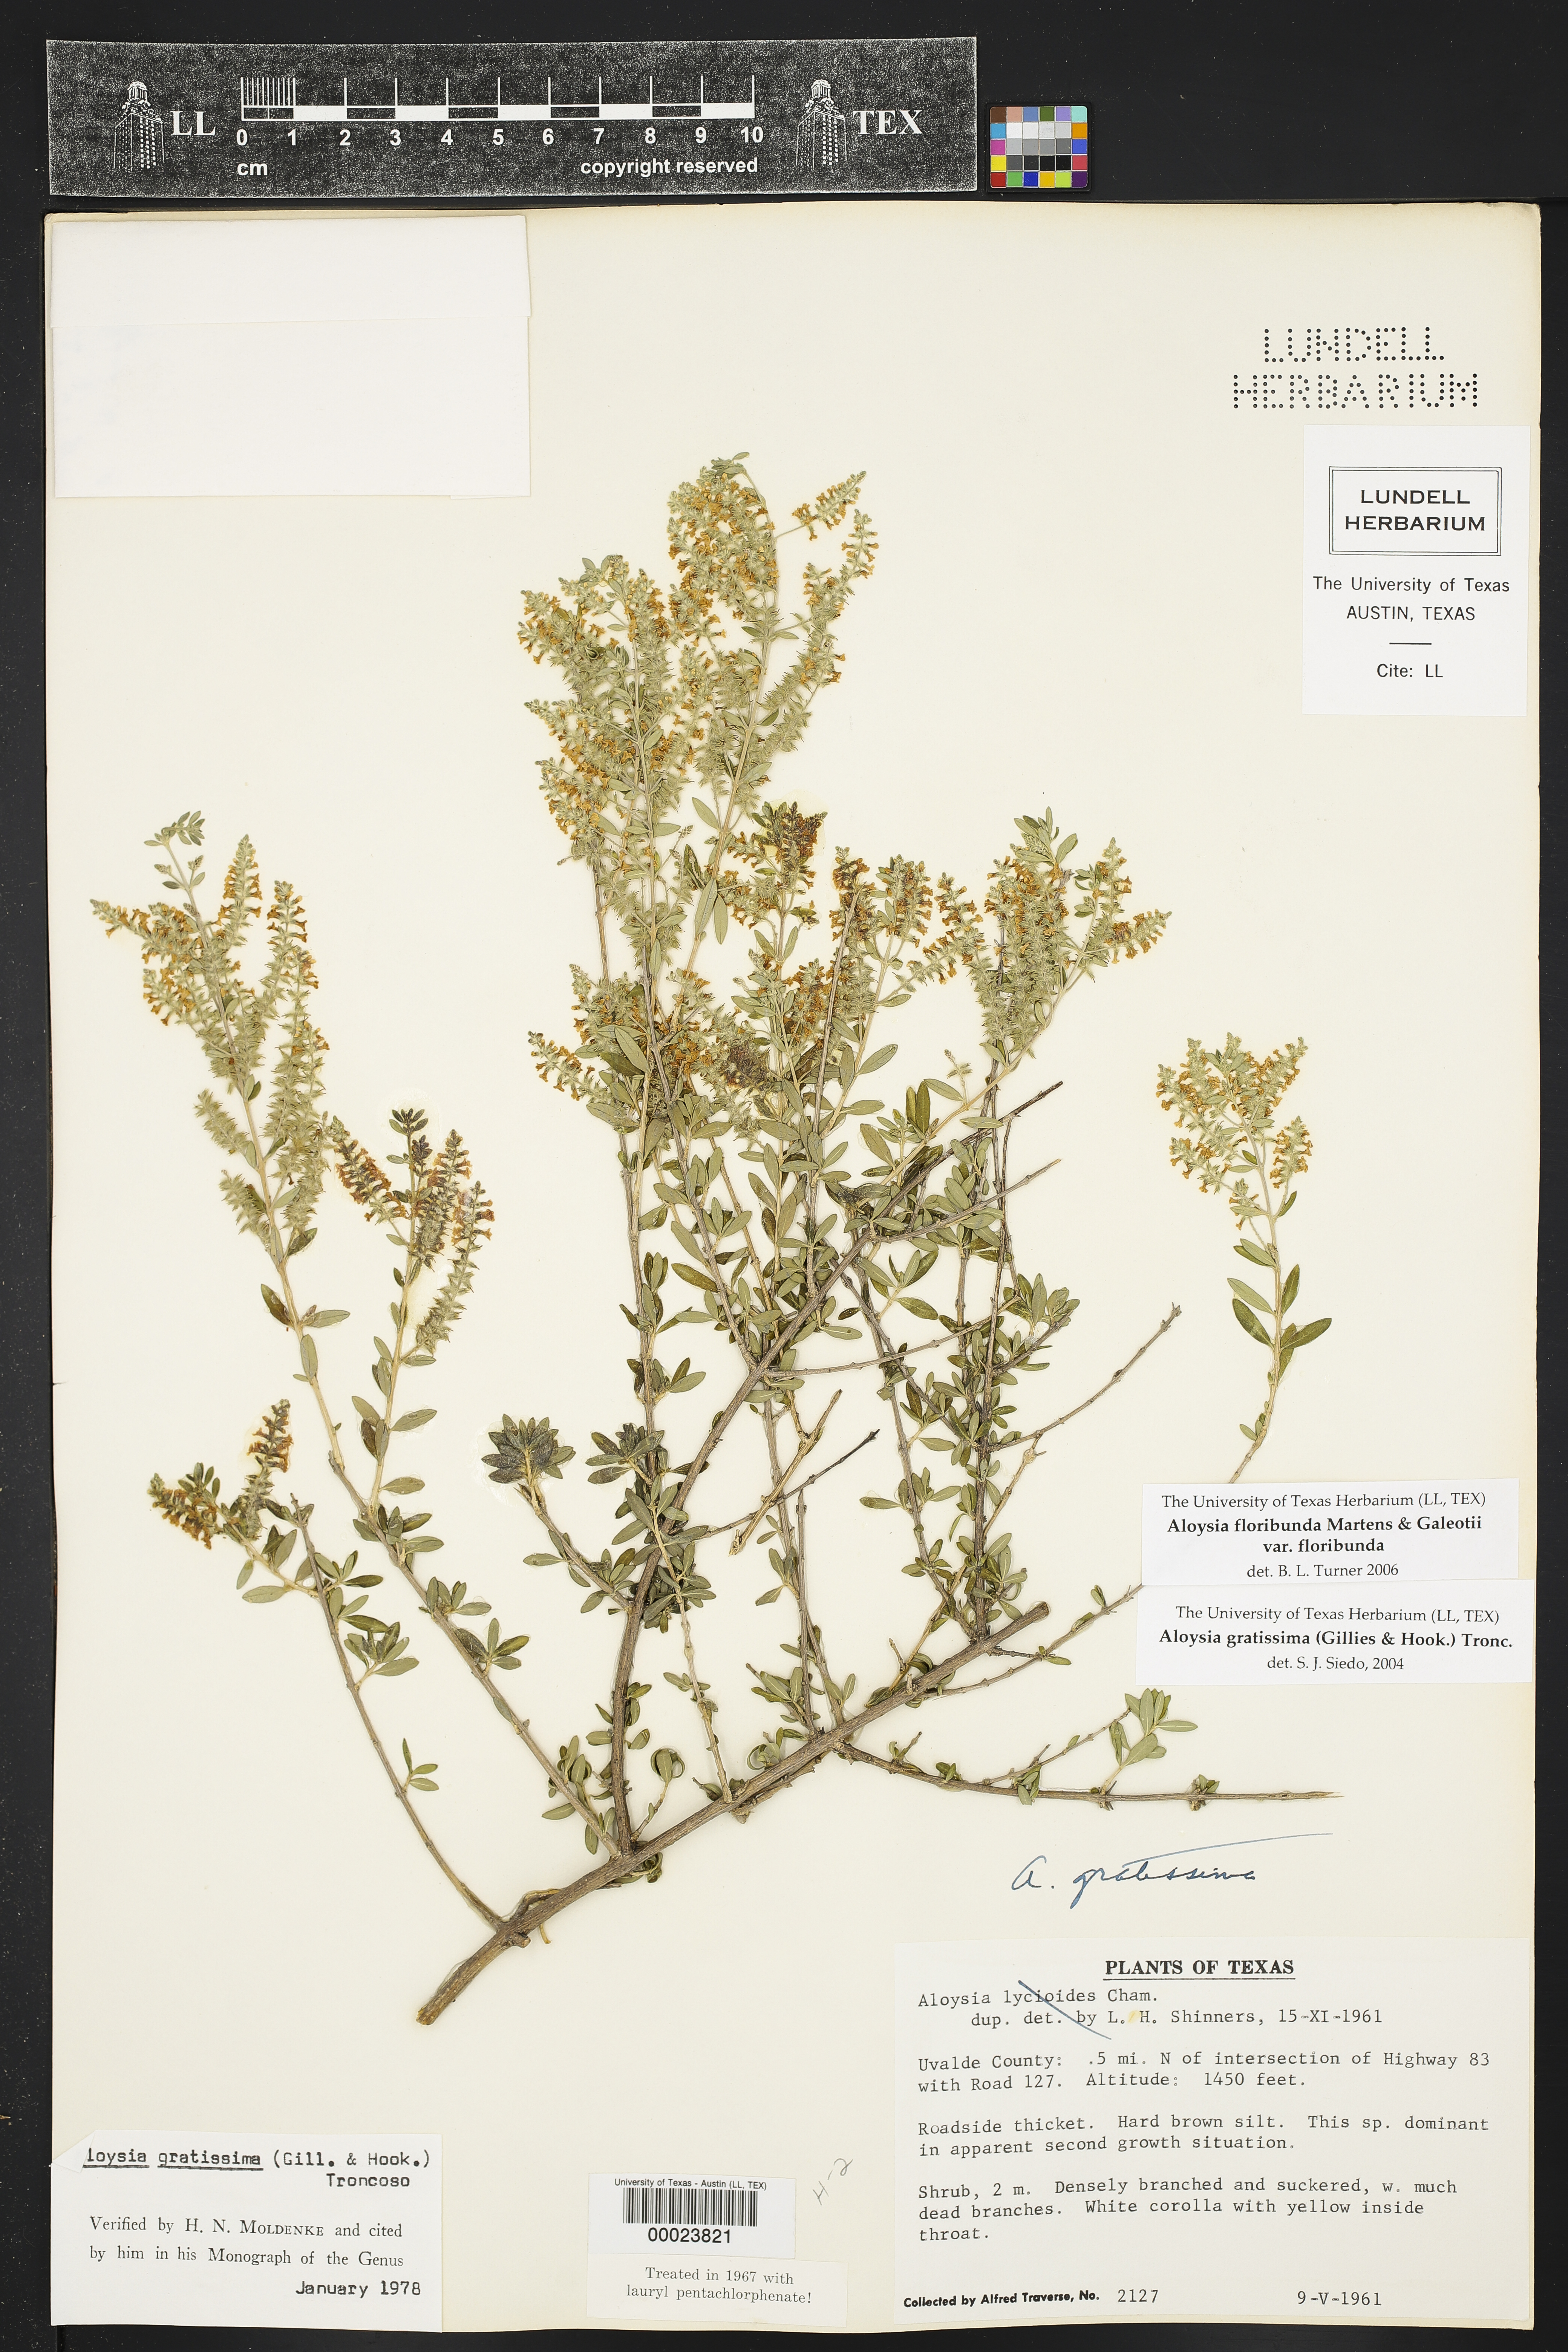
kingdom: Plantae
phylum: Tracheophyta
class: Magnoliopsida
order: Lamiales
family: Verbenaceae
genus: Aloysia
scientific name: Aloysia gratissima
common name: Common bee-brush
